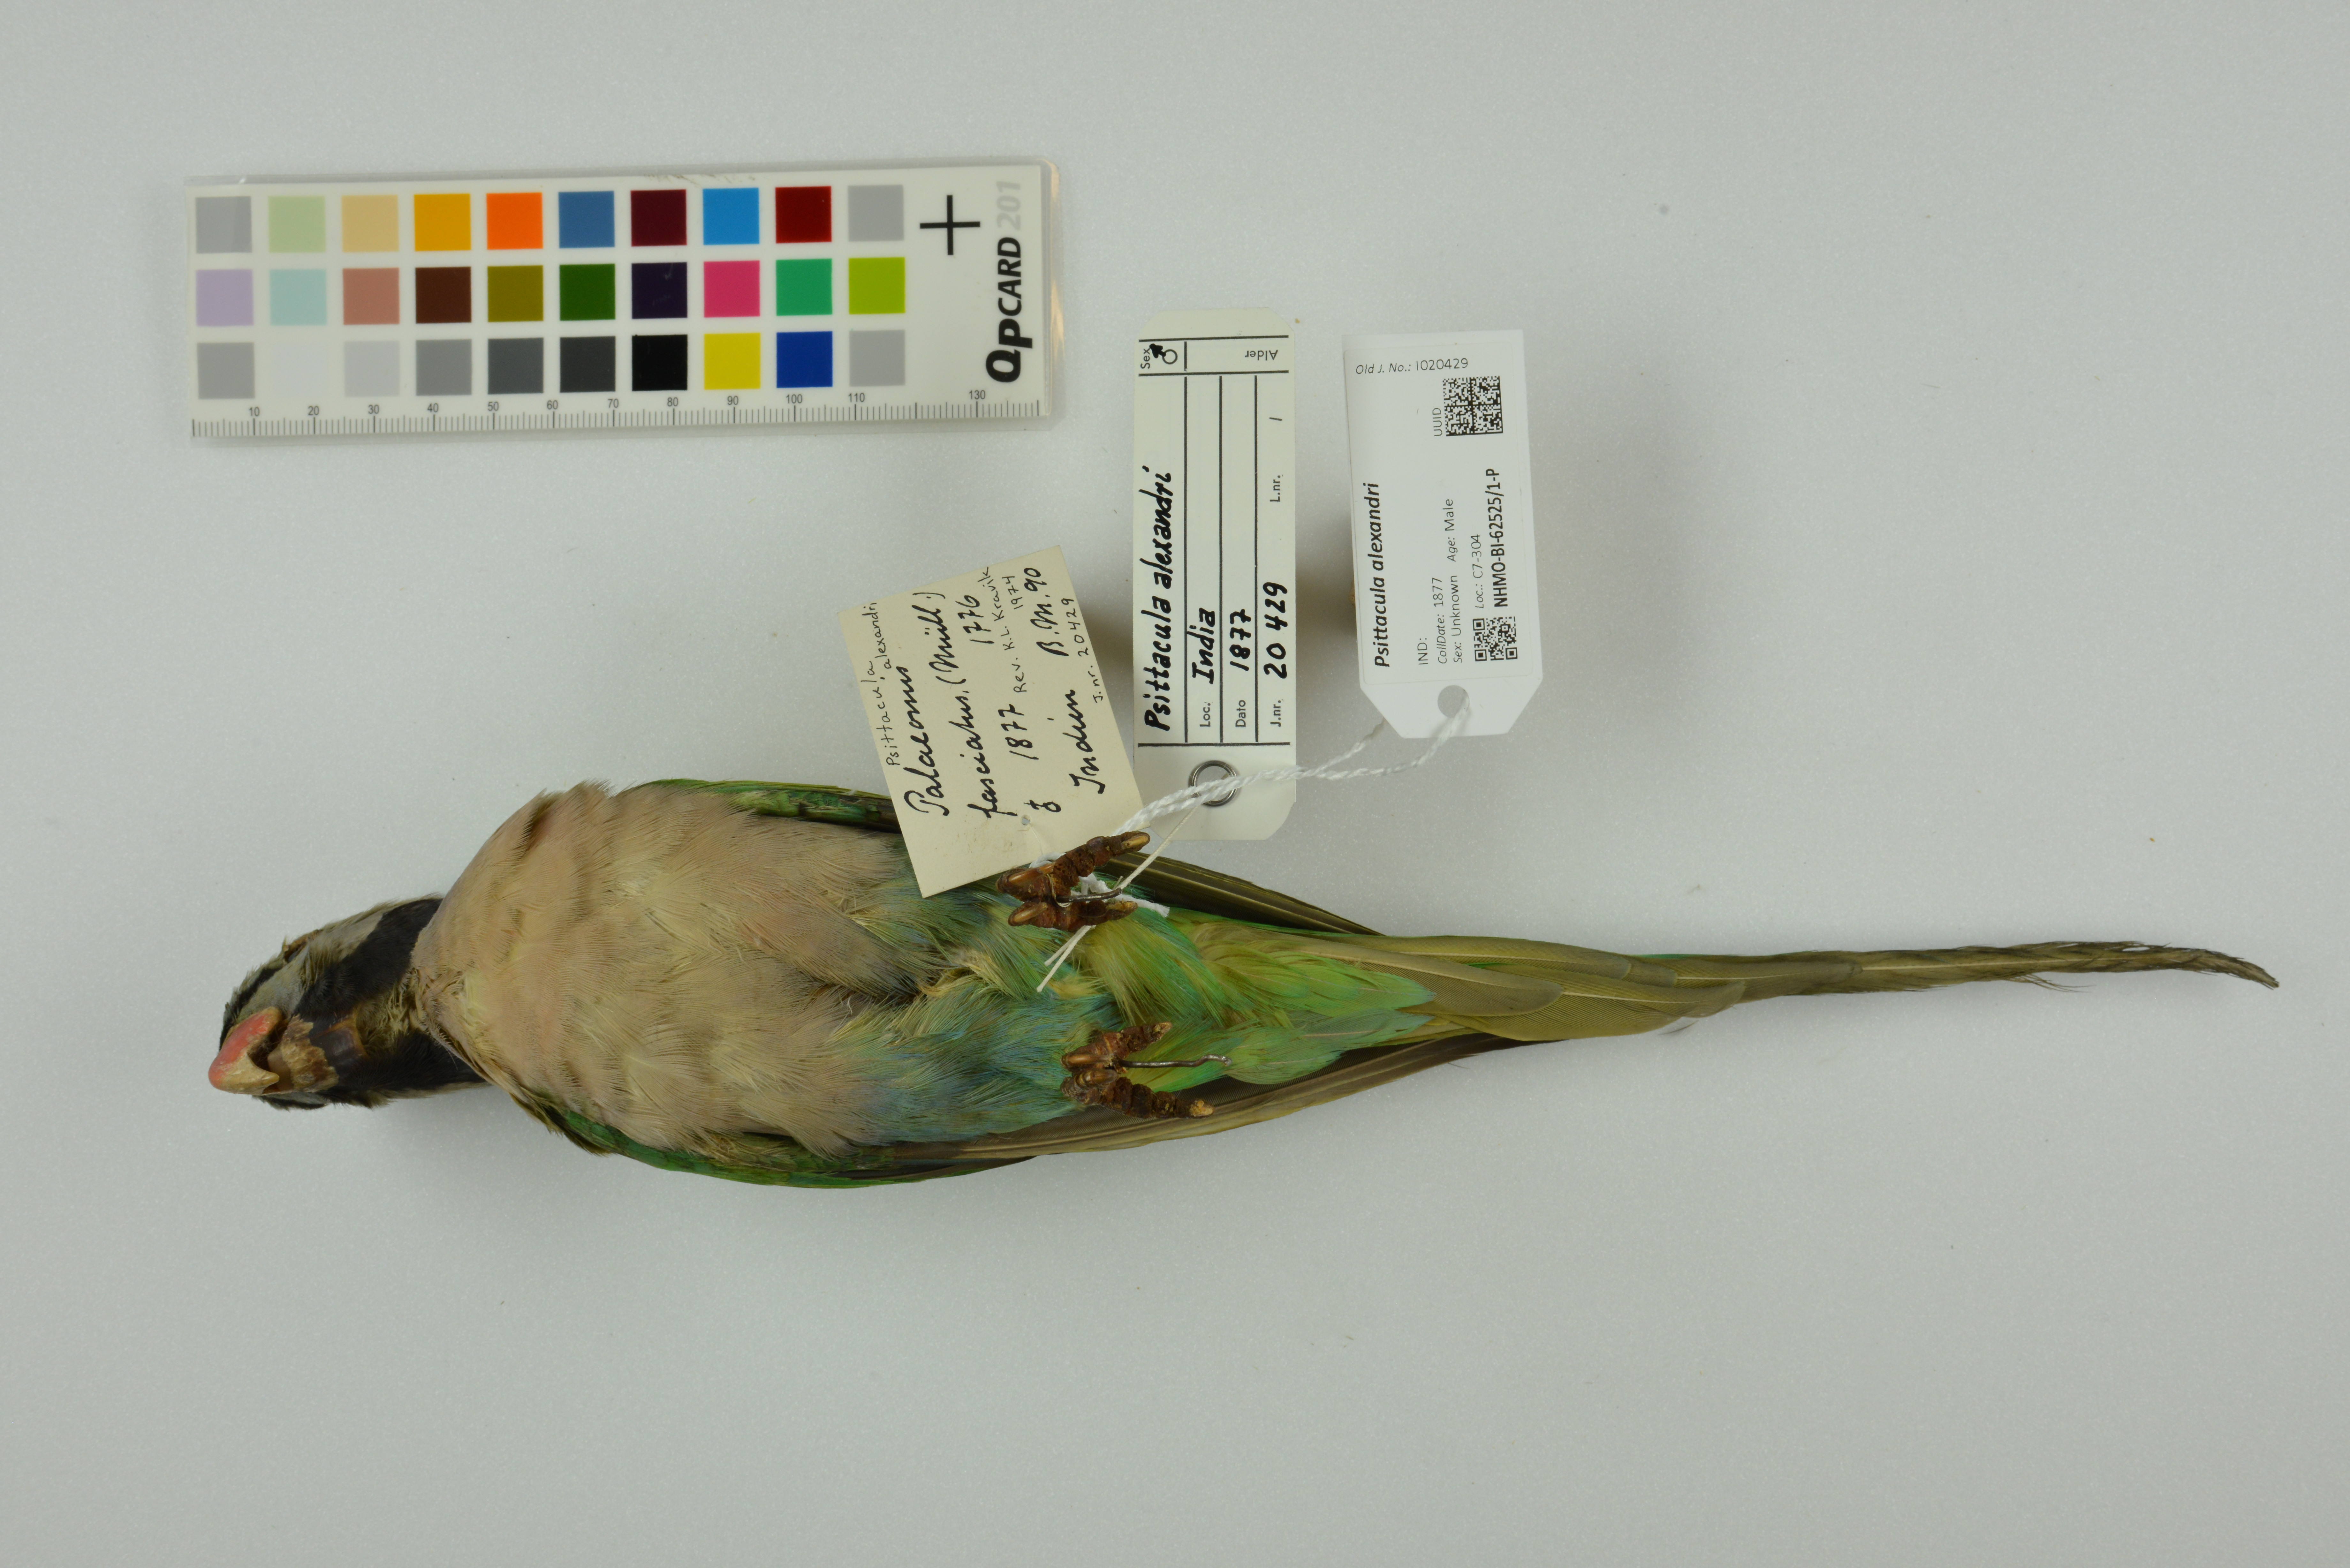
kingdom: Animalia
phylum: Chordata
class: Aves
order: Psittaciformes
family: Psittacidae
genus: Psittacula
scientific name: Psittacula alexandri
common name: Red-breasted parakeet
